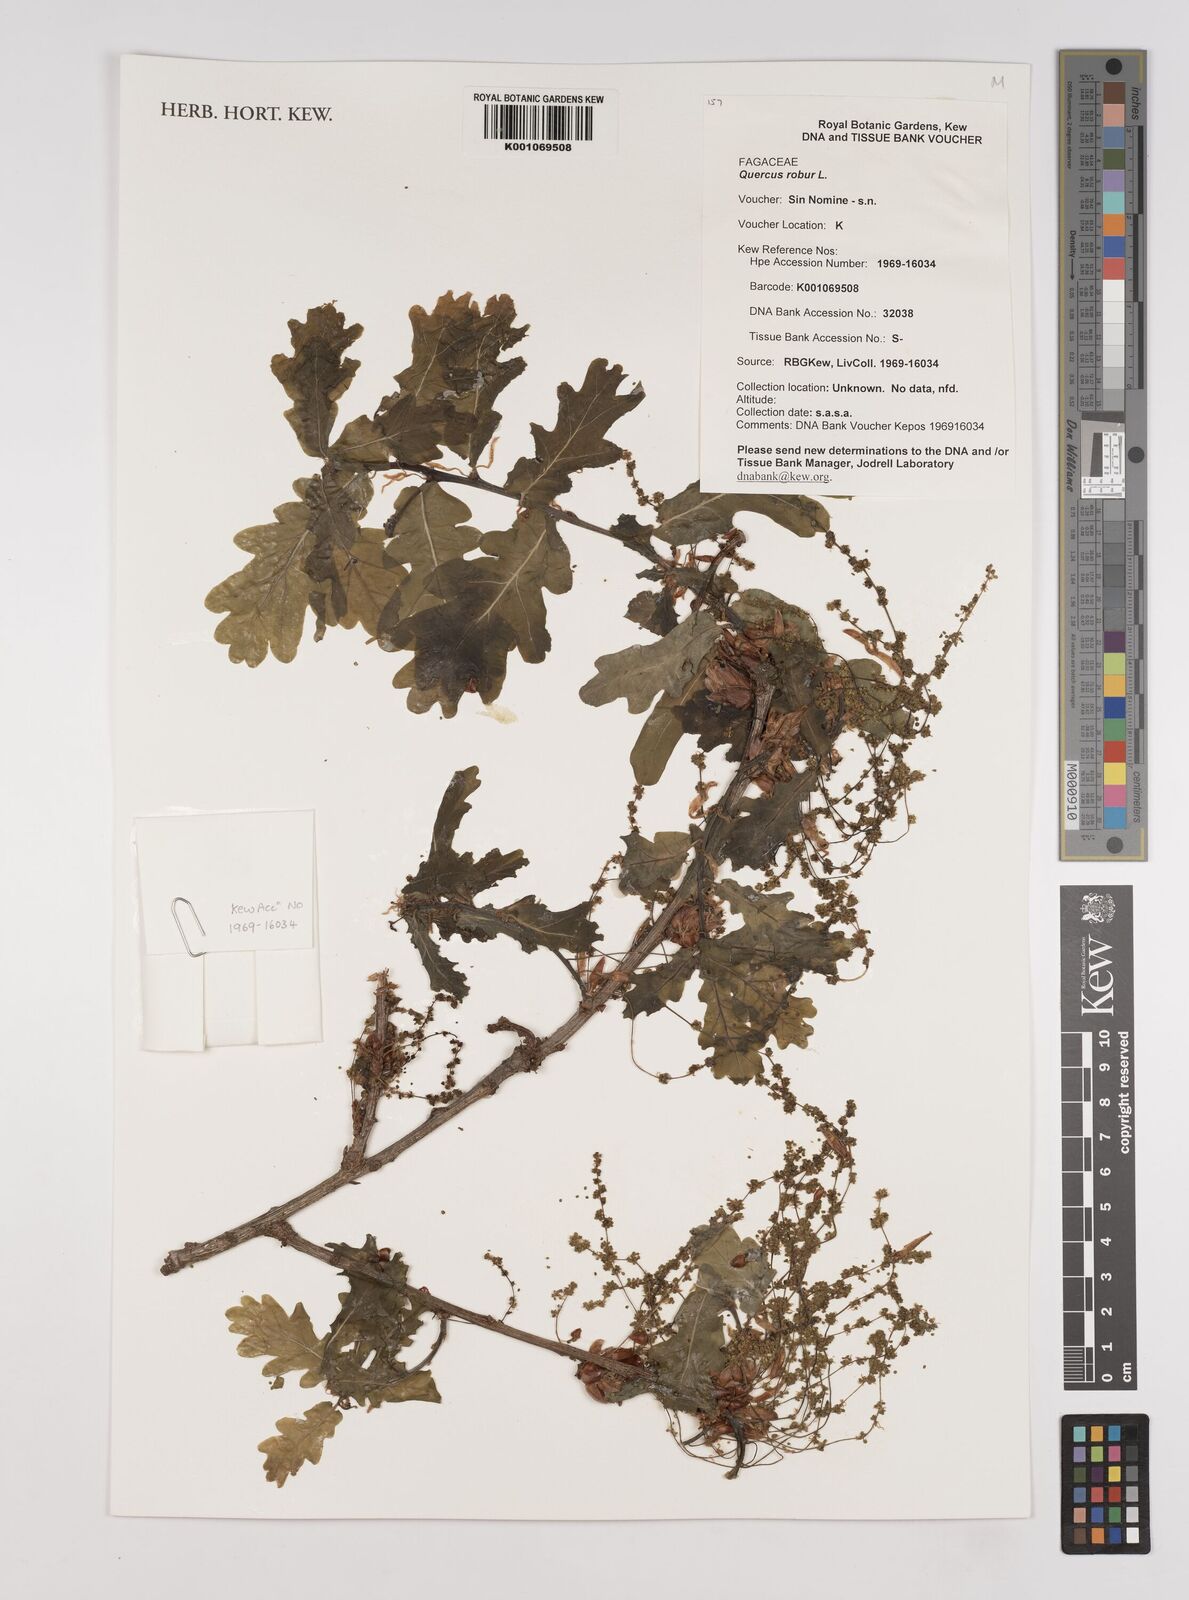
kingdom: Plantae
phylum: Tracheophyta
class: Magnoliopsida
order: Fagales
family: Fagaceae
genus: Quercus
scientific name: Quercus robur
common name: Pedunculate oak
